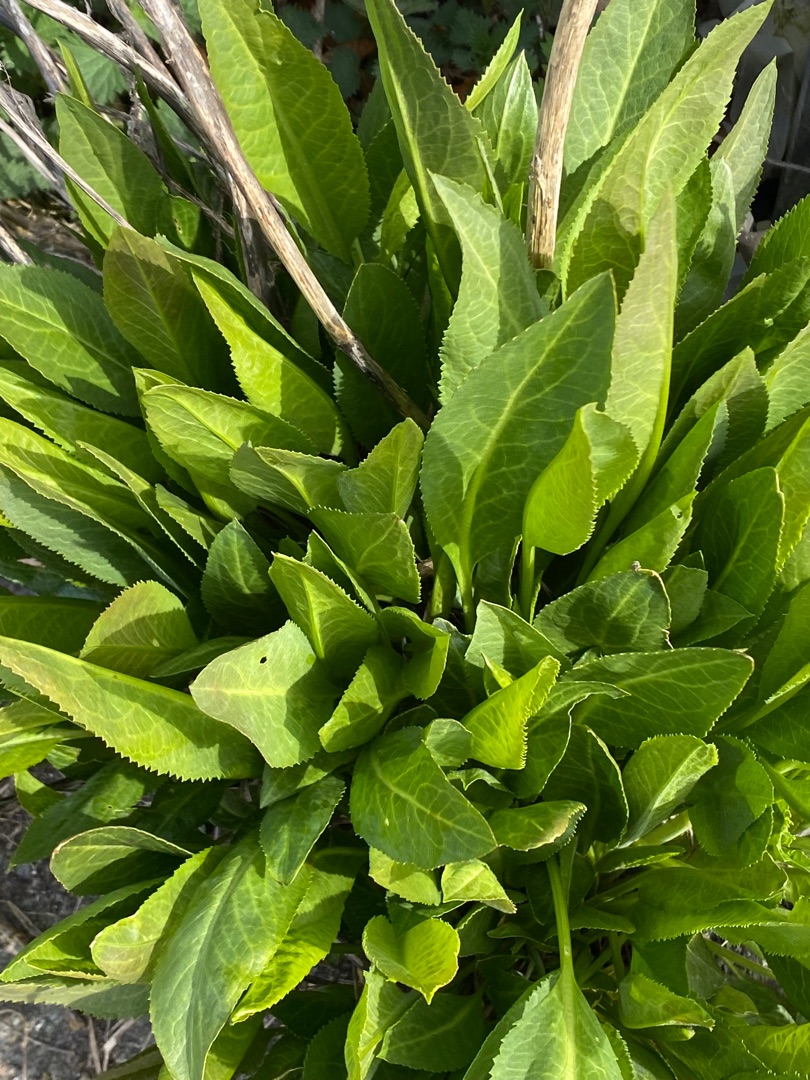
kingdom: Plantae
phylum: Tracheophyta
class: Magnoliopsida
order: Brassicales
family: Brassicaceae
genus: Lepidium
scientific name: Lepidium latifolium
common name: Strand-karse
